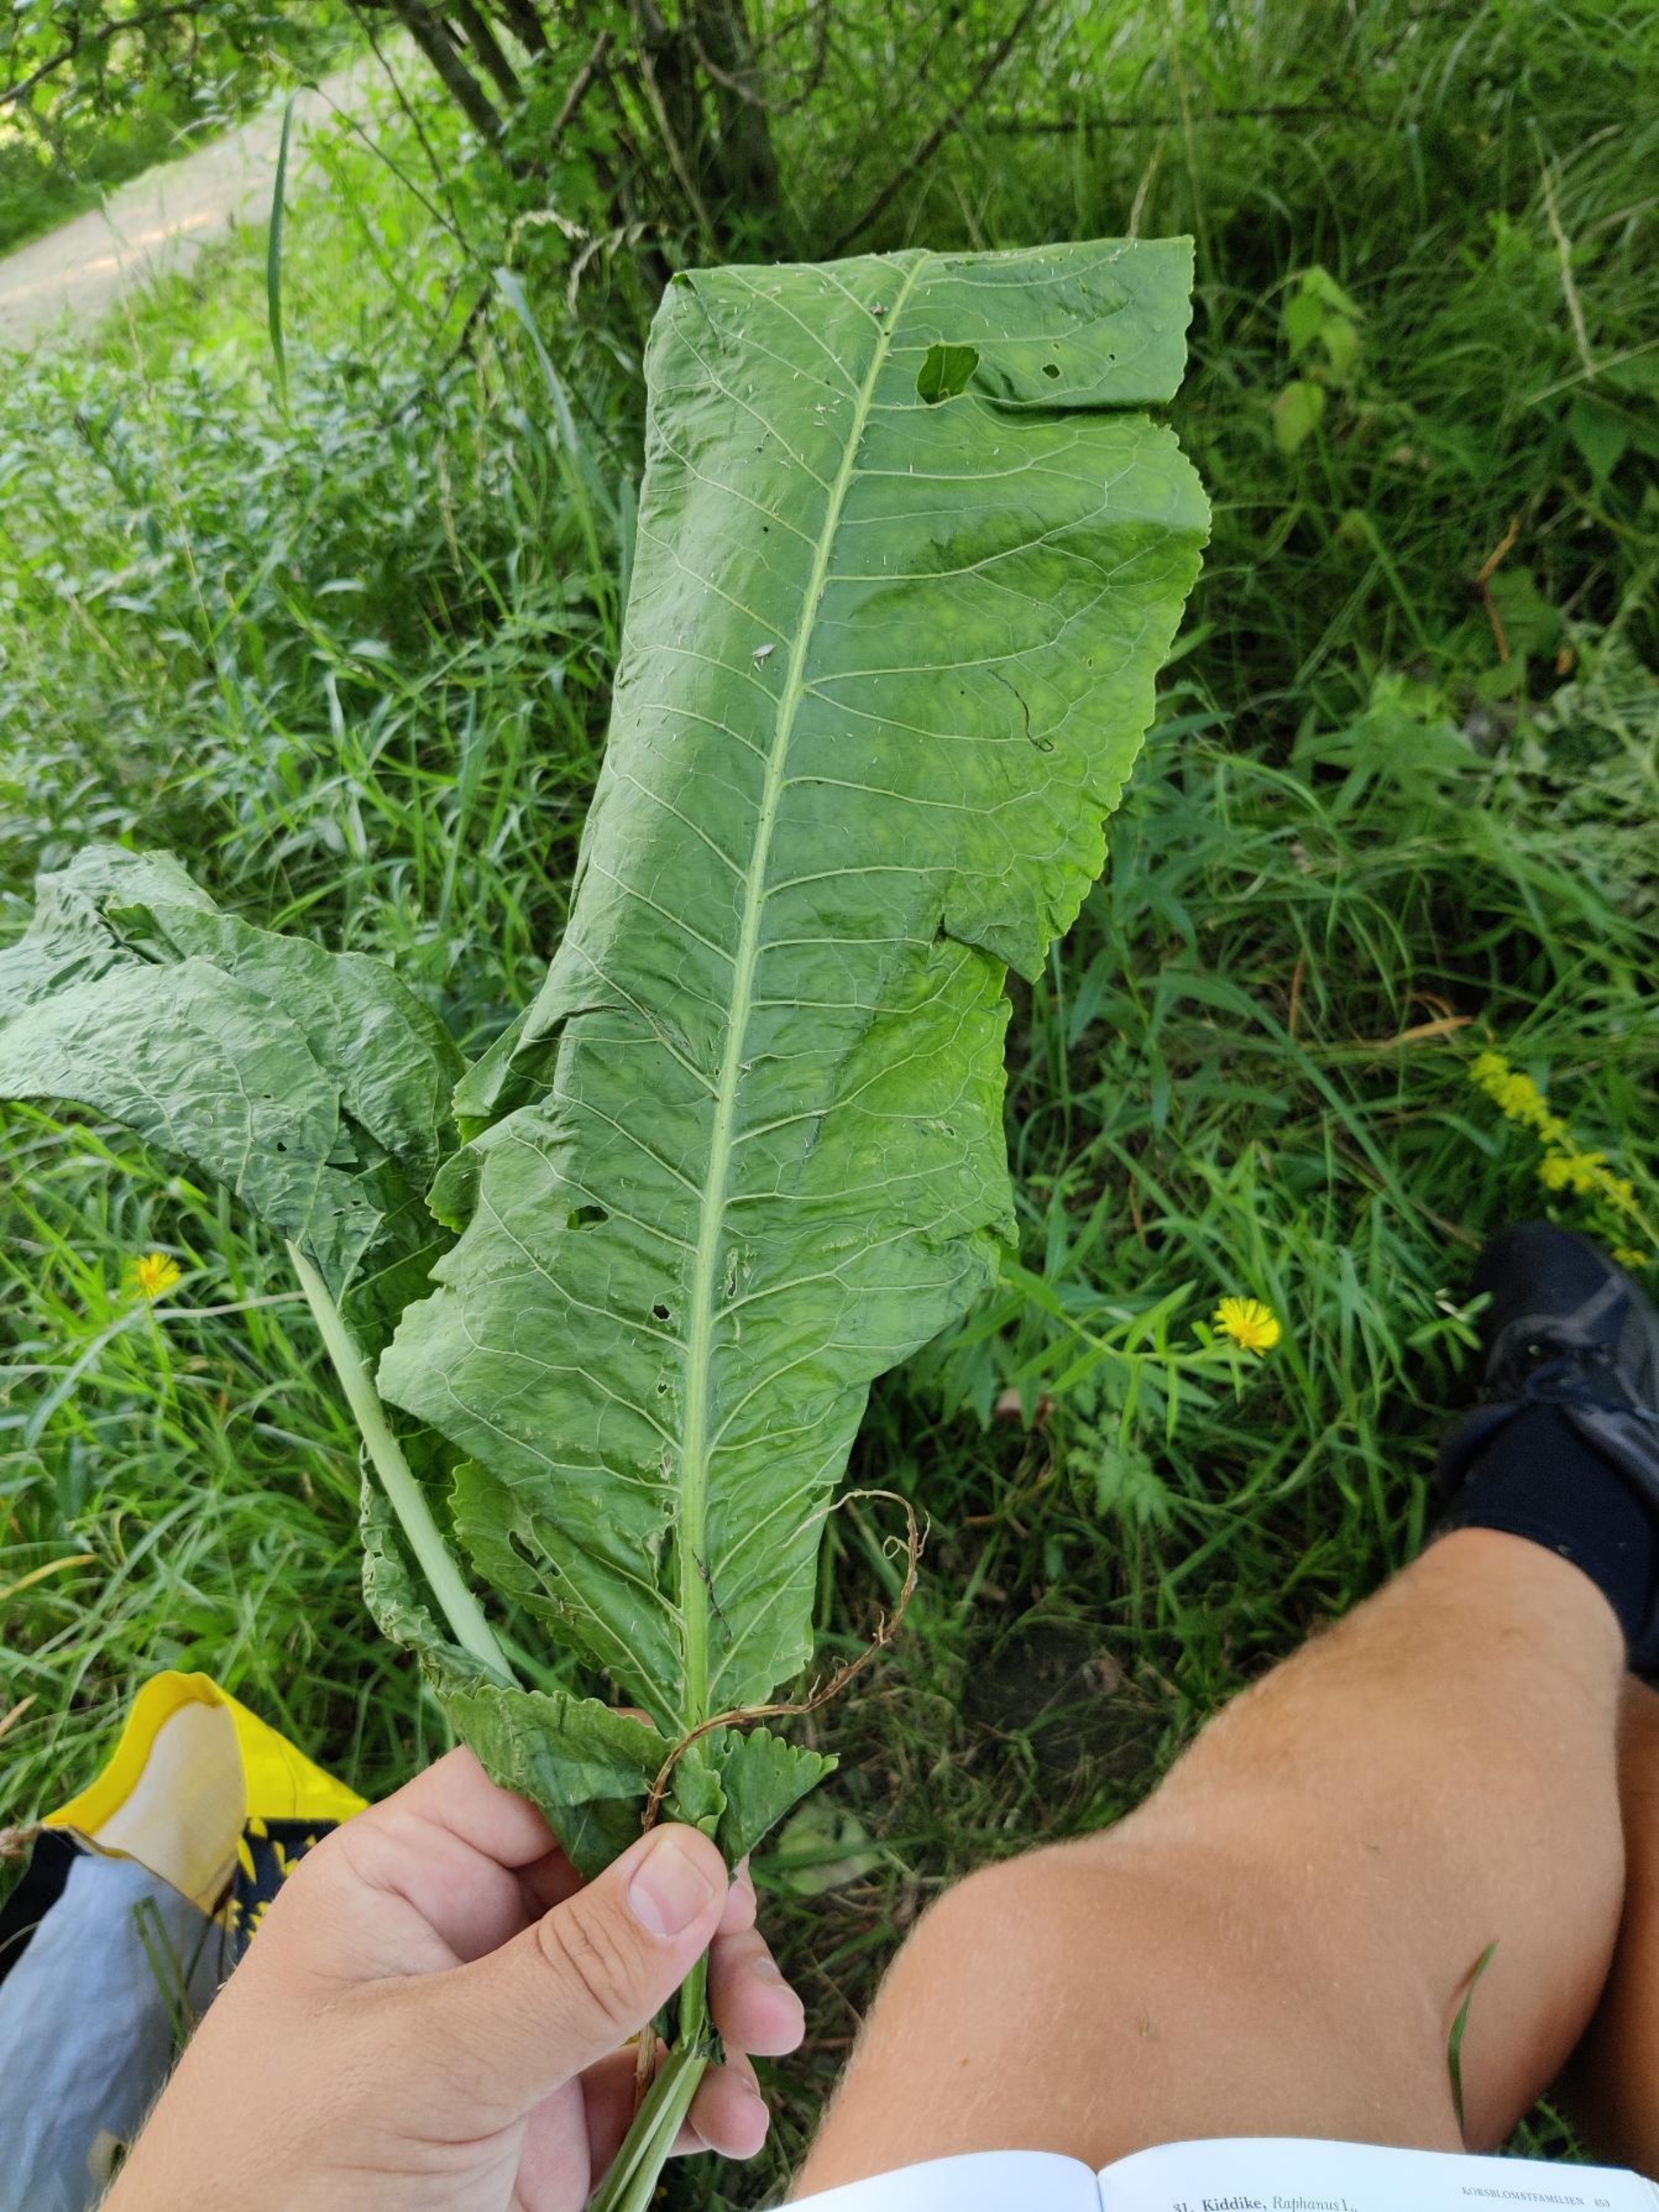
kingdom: Plantae
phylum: Tracheophyta
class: Magnoliopsida
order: Brassicales
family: Brassicaceae
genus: Armoracia
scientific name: Armoracia rusticana
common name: Peberrod
